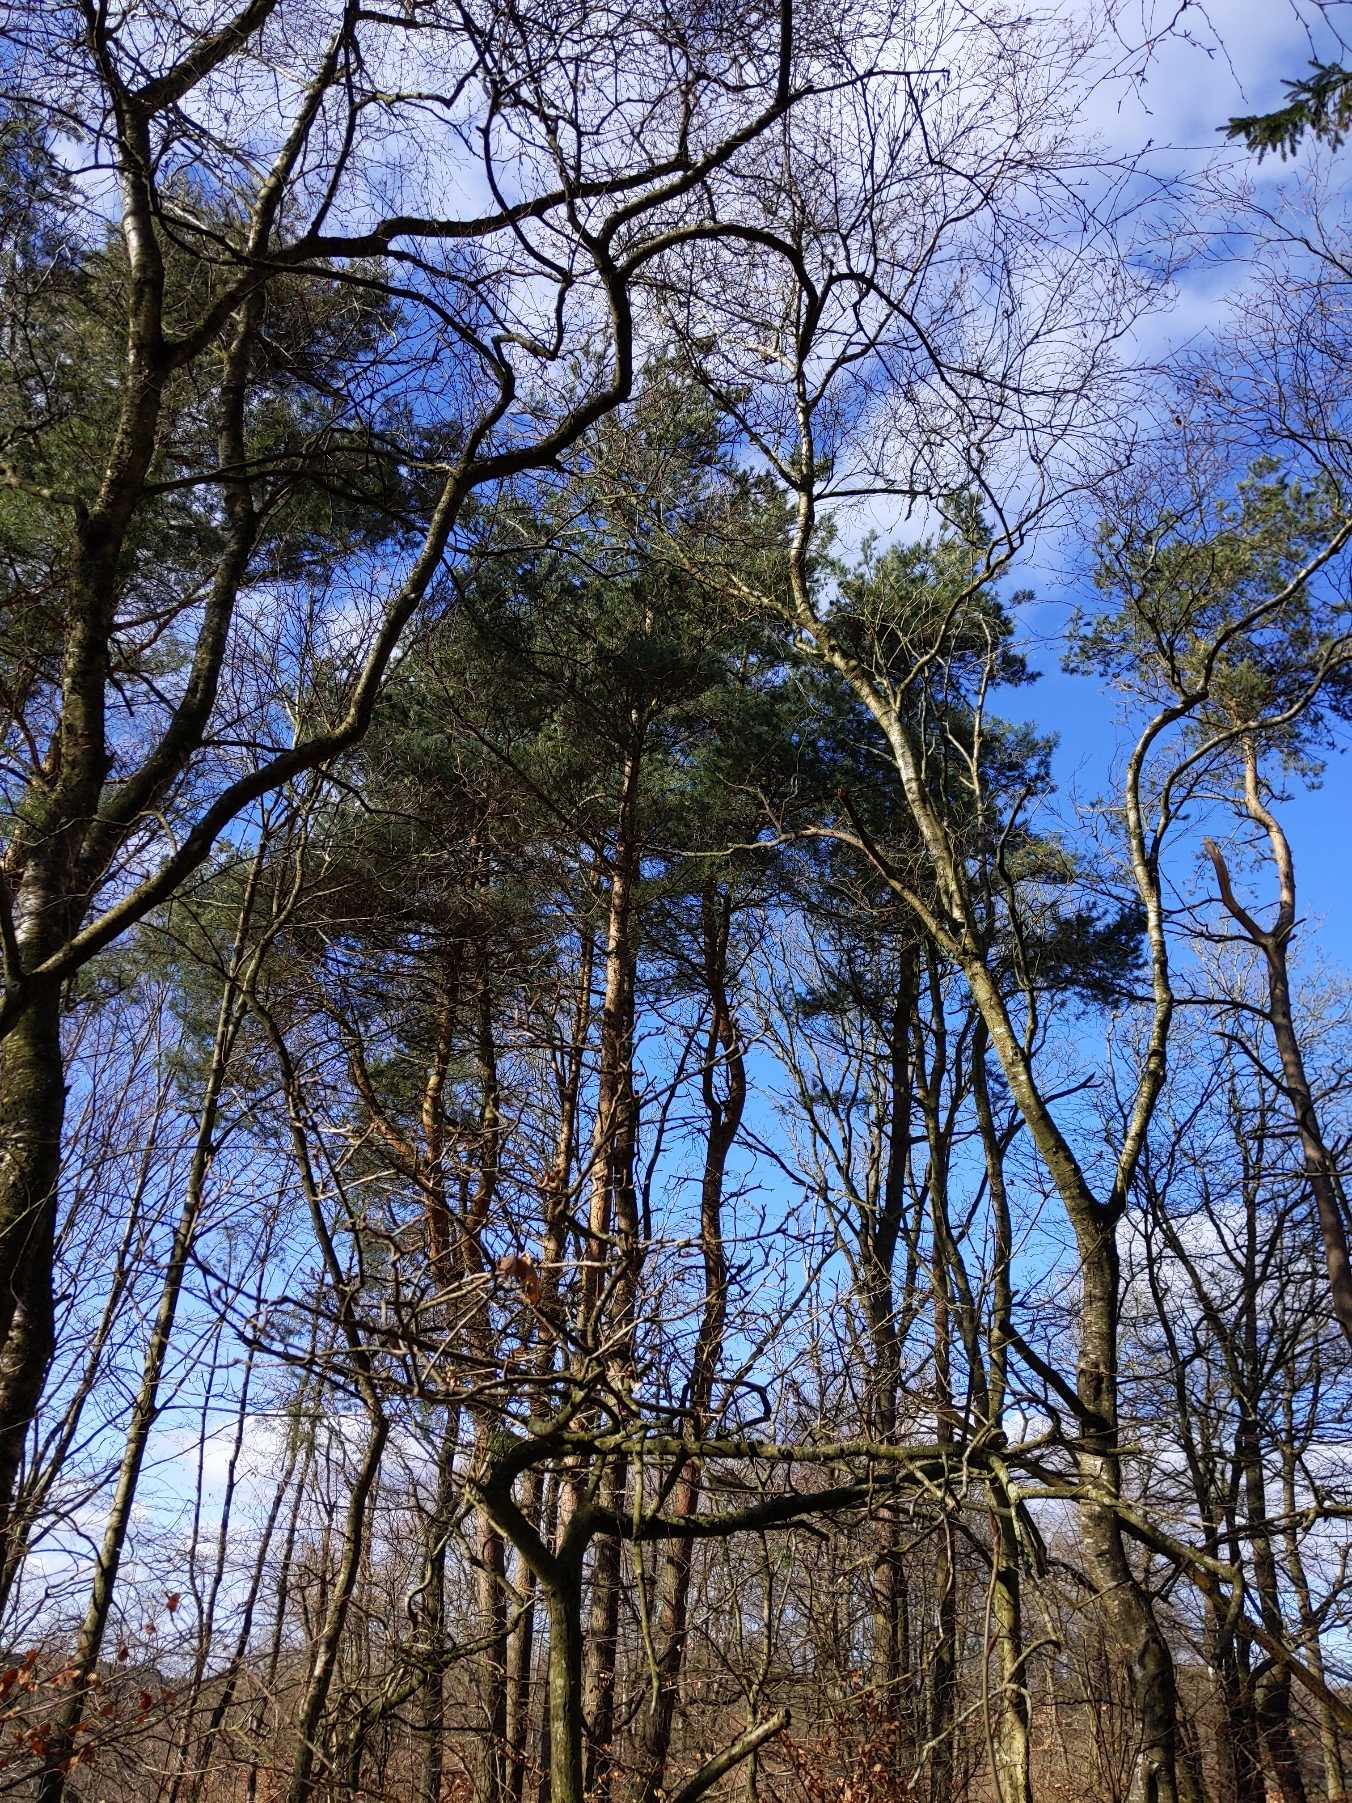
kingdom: Plantae
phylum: Tracheophyta
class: Pinopsida
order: Pinales
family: Pinaceae
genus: Pinus
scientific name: Pinus sylvestris
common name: Skov-fyr
